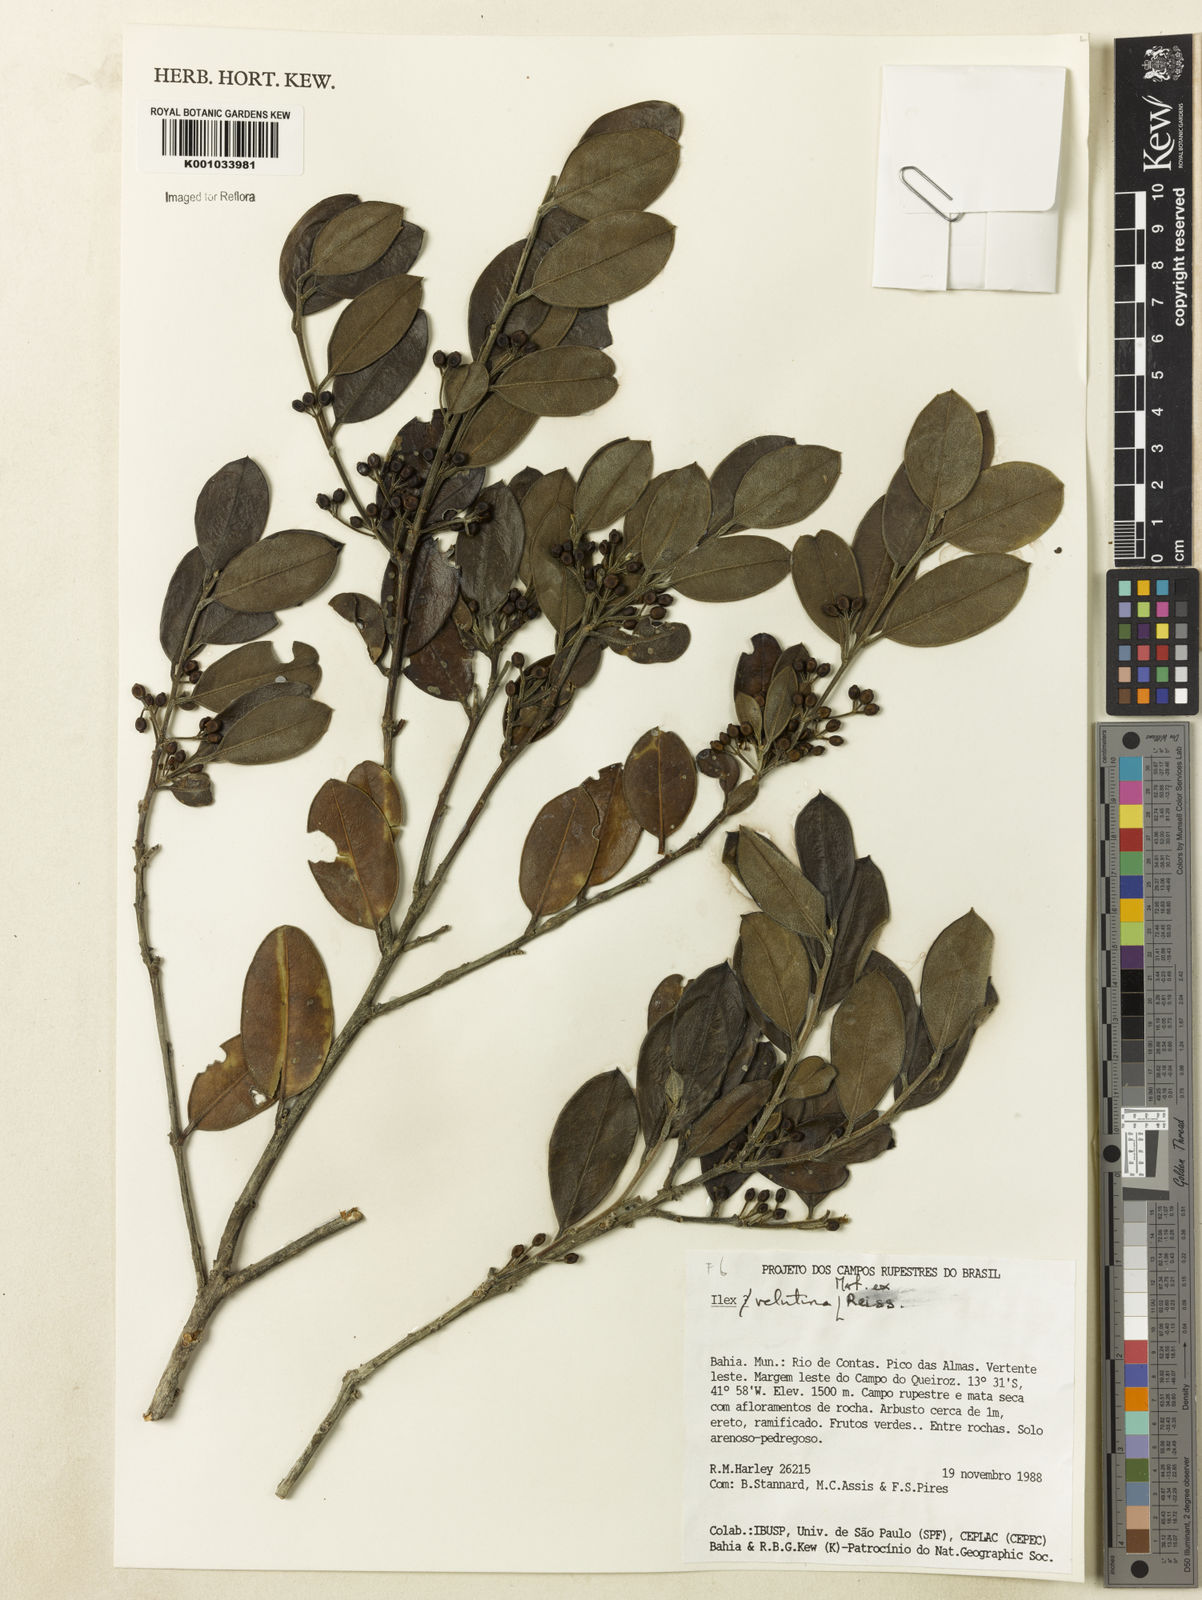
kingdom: Plantae
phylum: Tracheophyta
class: Magnoliopsida
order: Aquifoliales
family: Aquifoliaceae
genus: Ilex
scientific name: Ilex velutina
